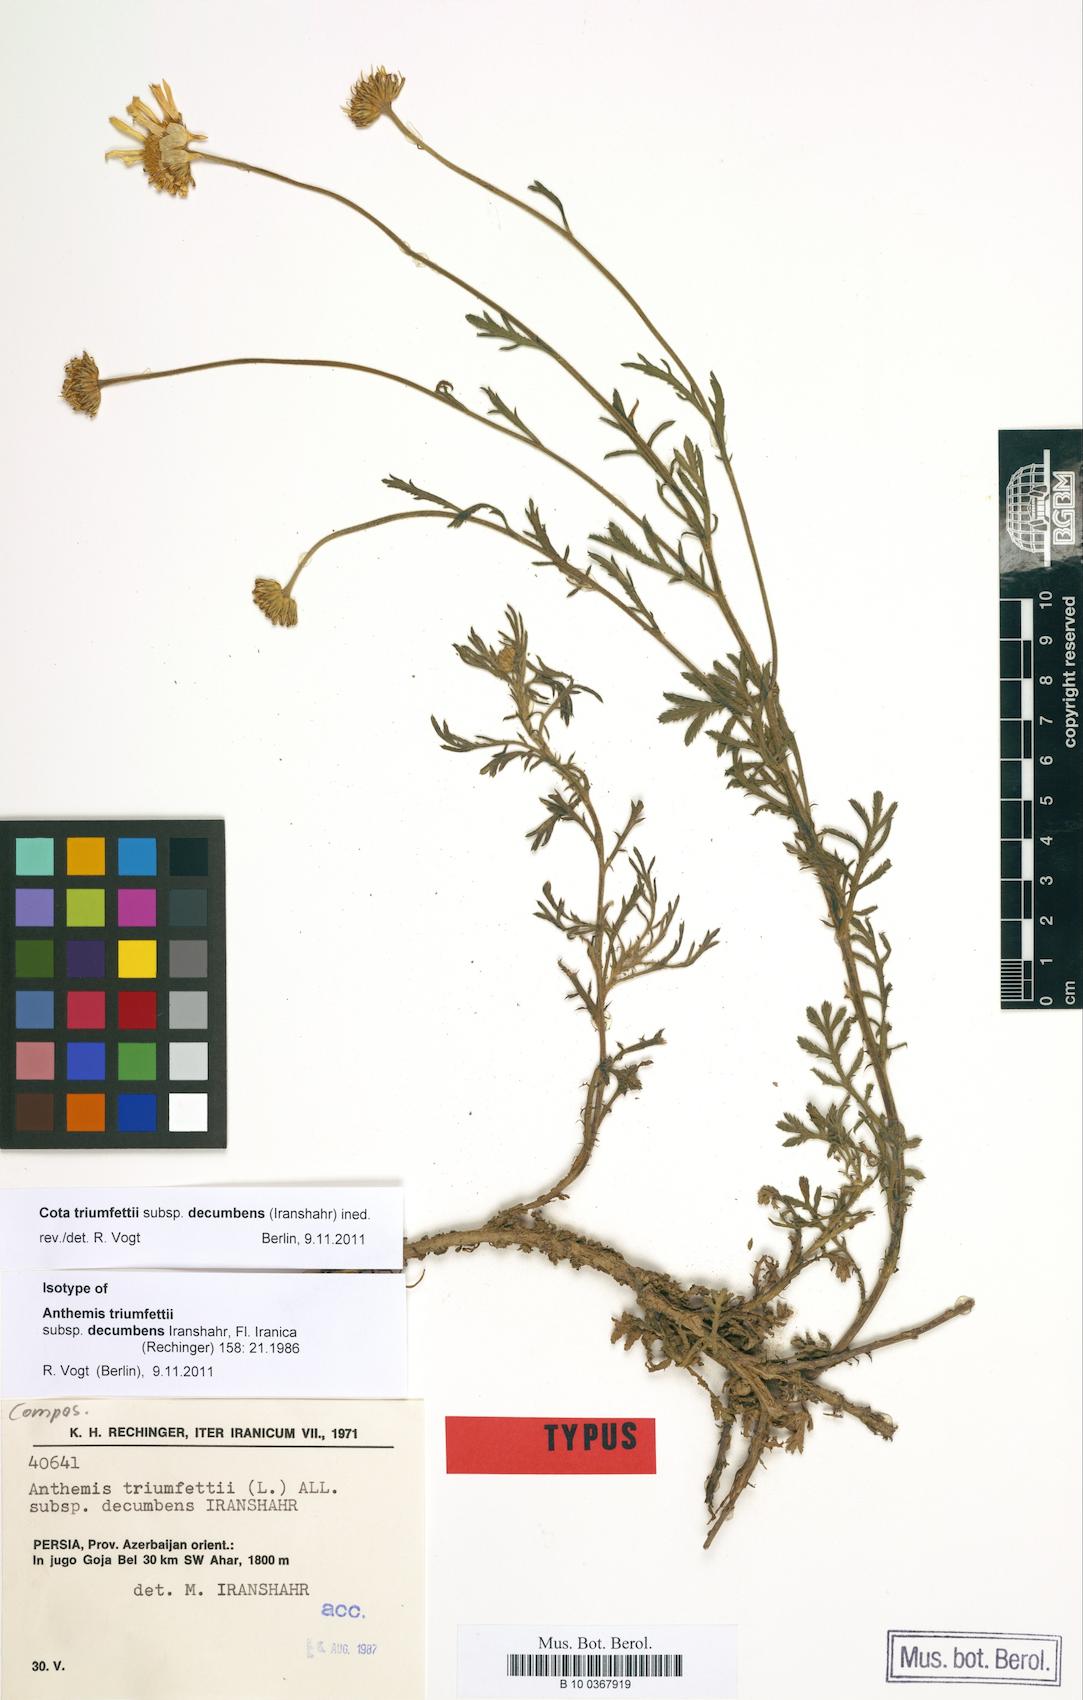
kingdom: Plantae
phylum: Tracheophyta
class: Magnoliopsida
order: Asterales
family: Asteraceae
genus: Cota
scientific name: Cota triumfetti
